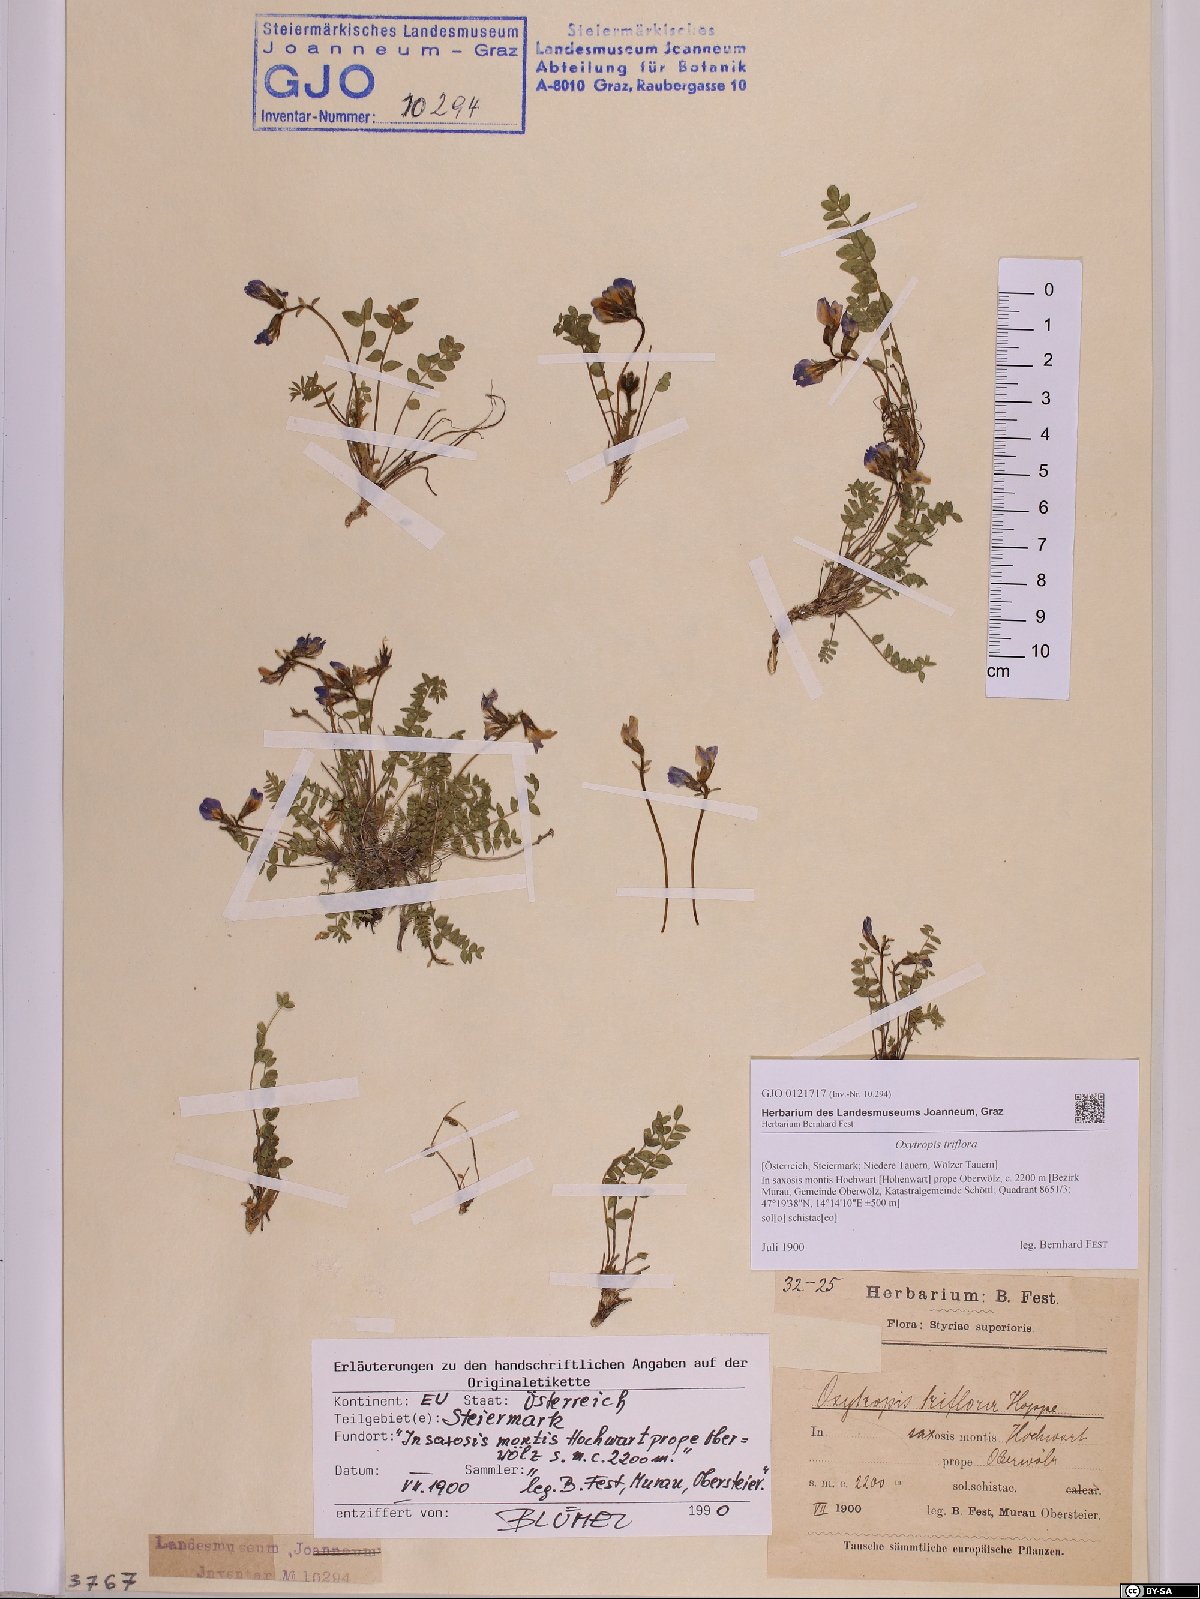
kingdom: Plantae
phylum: Tracheophyta
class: Magnoliopsida
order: Fabales
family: Fabaceae
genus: Oxytropis
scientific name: Oxytropis triflora
